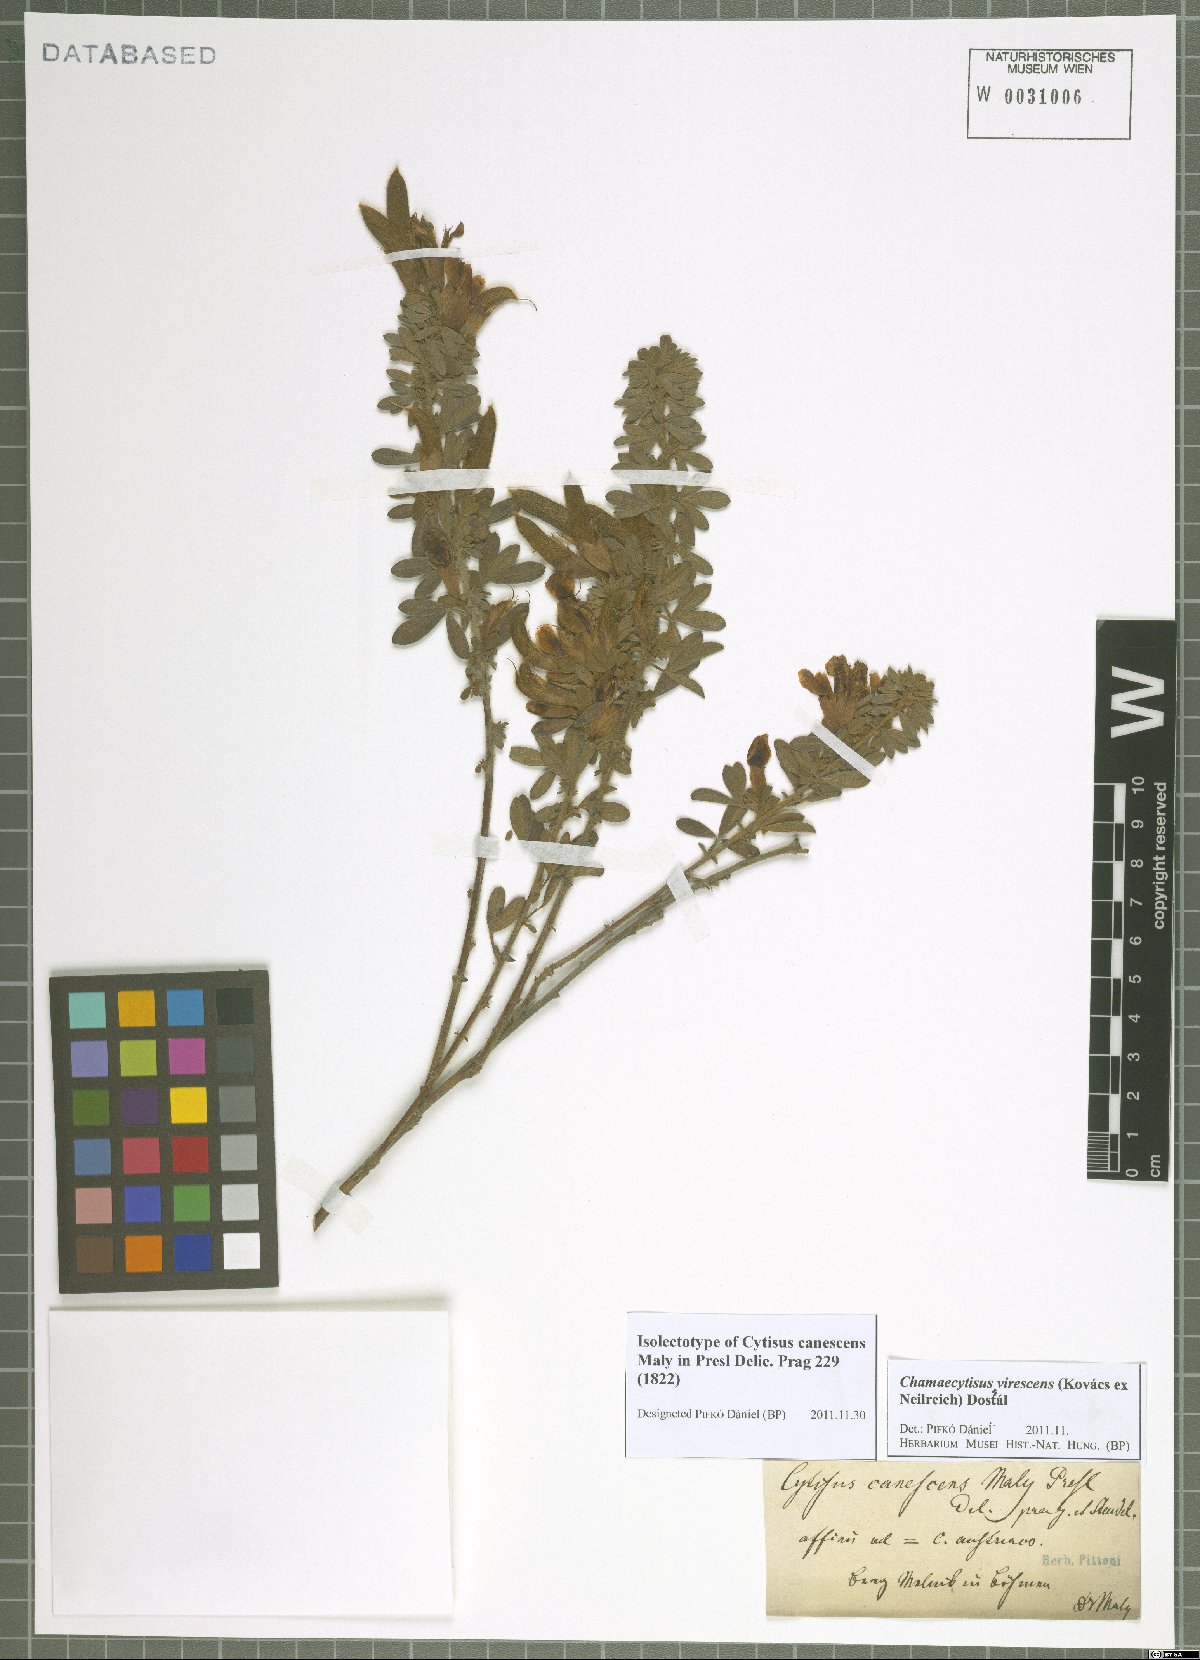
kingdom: Plantae
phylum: Tracheophyta
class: Magnoliopsida
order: Fabales
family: Fabaceae
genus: Chamaecytisus
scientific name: Chamaecytisus virescens
